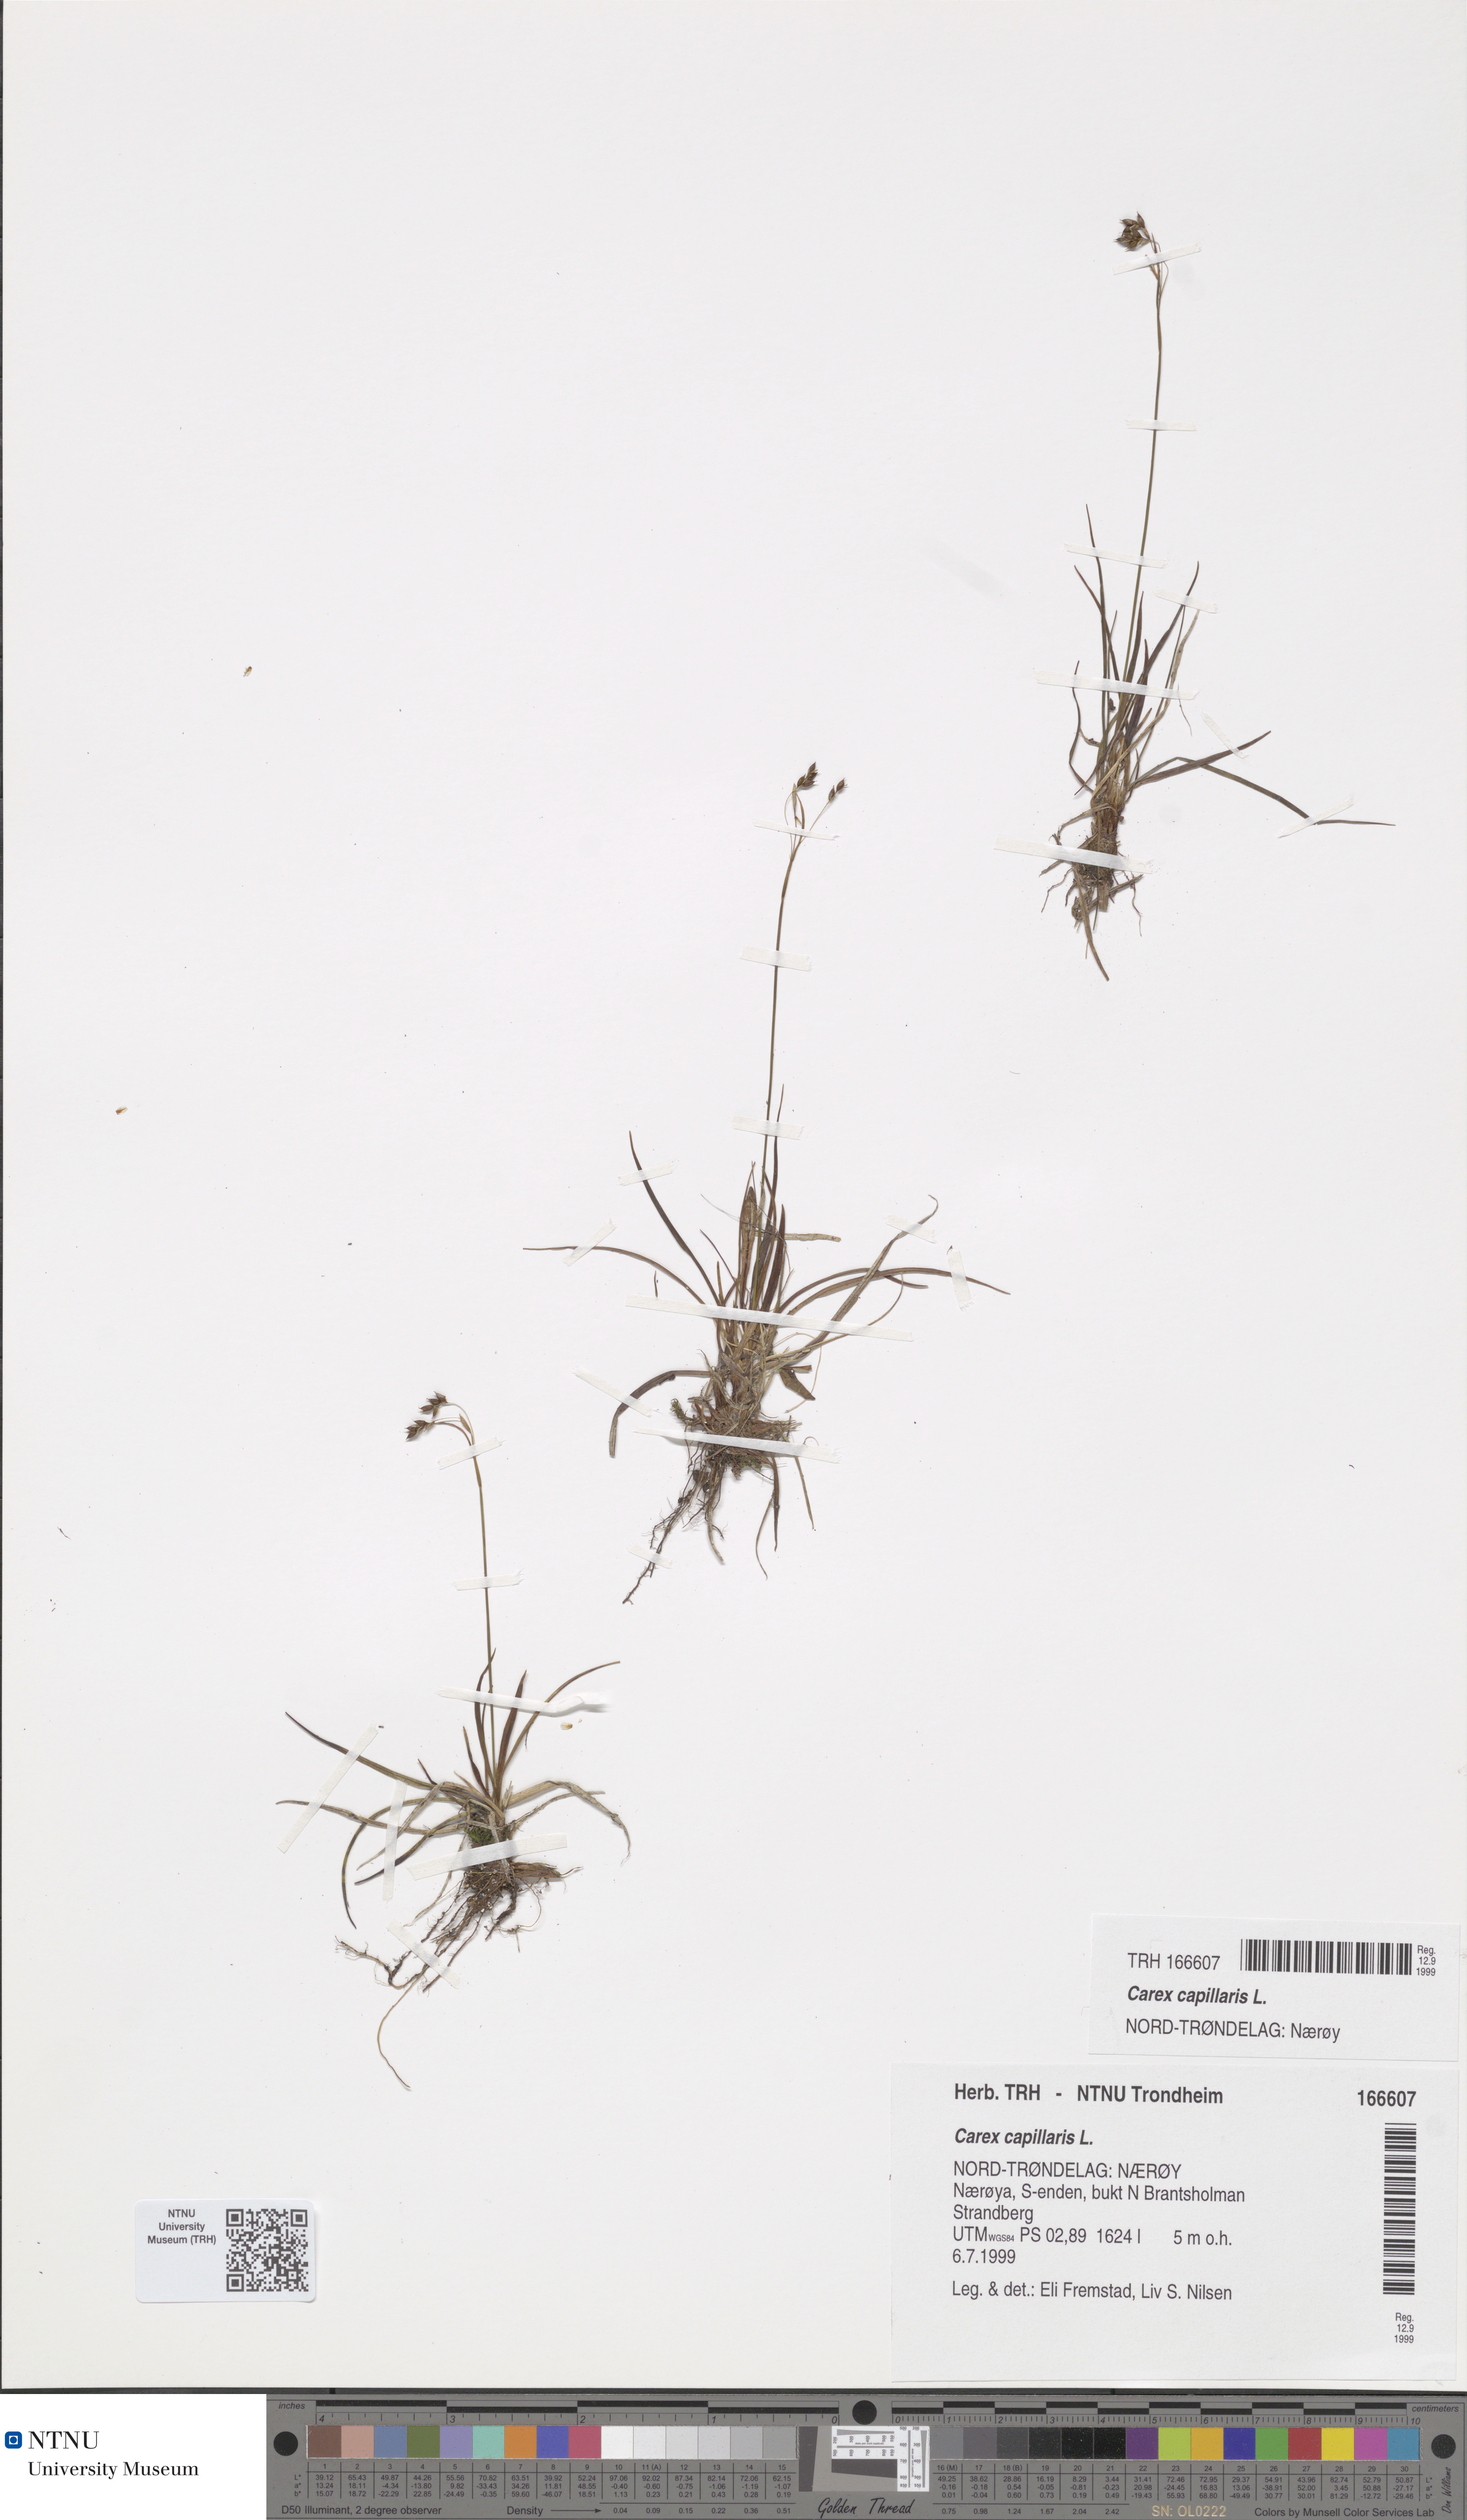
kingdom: Plantae
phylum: Tracheophyta
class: Liliopsida
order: Poales
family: Cyperaceae
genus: Carex
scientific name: Carex capillaris
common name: Hair sedge
